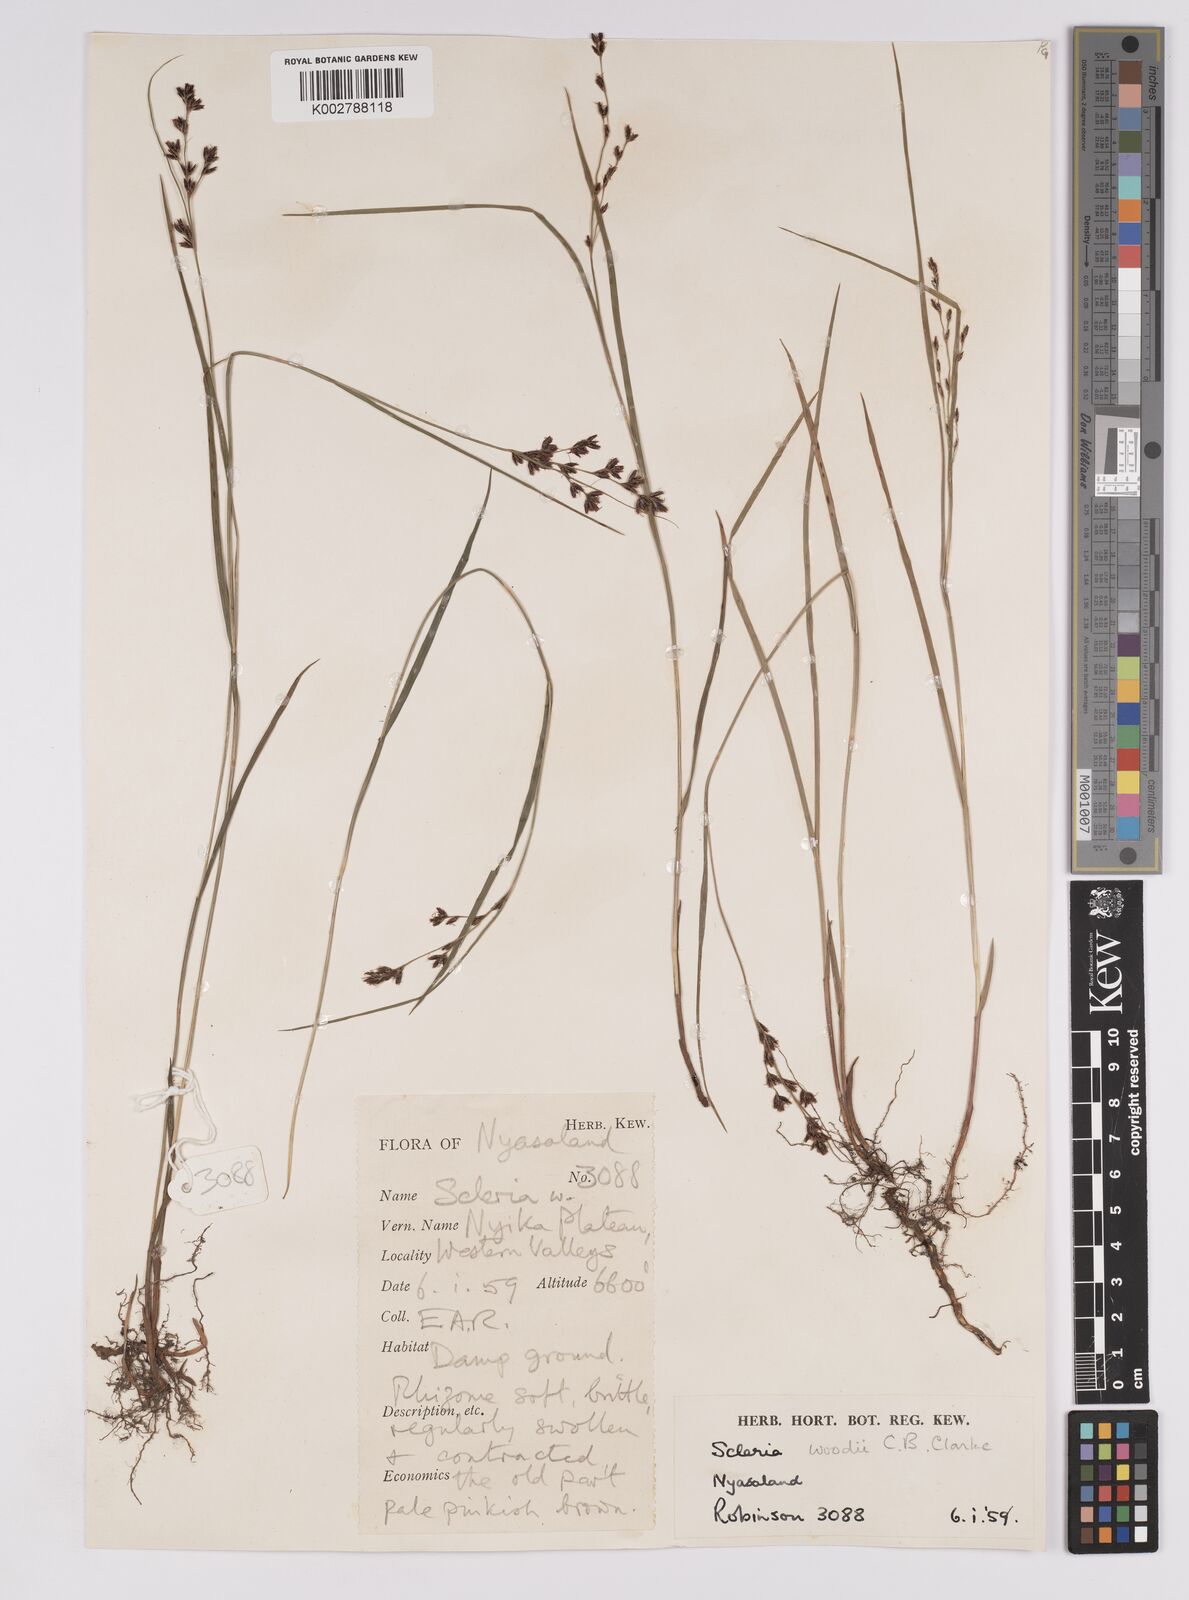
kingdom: Plantae
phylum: Tracheophyta
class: Liliopsida
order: Poales
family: Cyperaceae
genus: Scleria
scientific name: Scleria woodii
